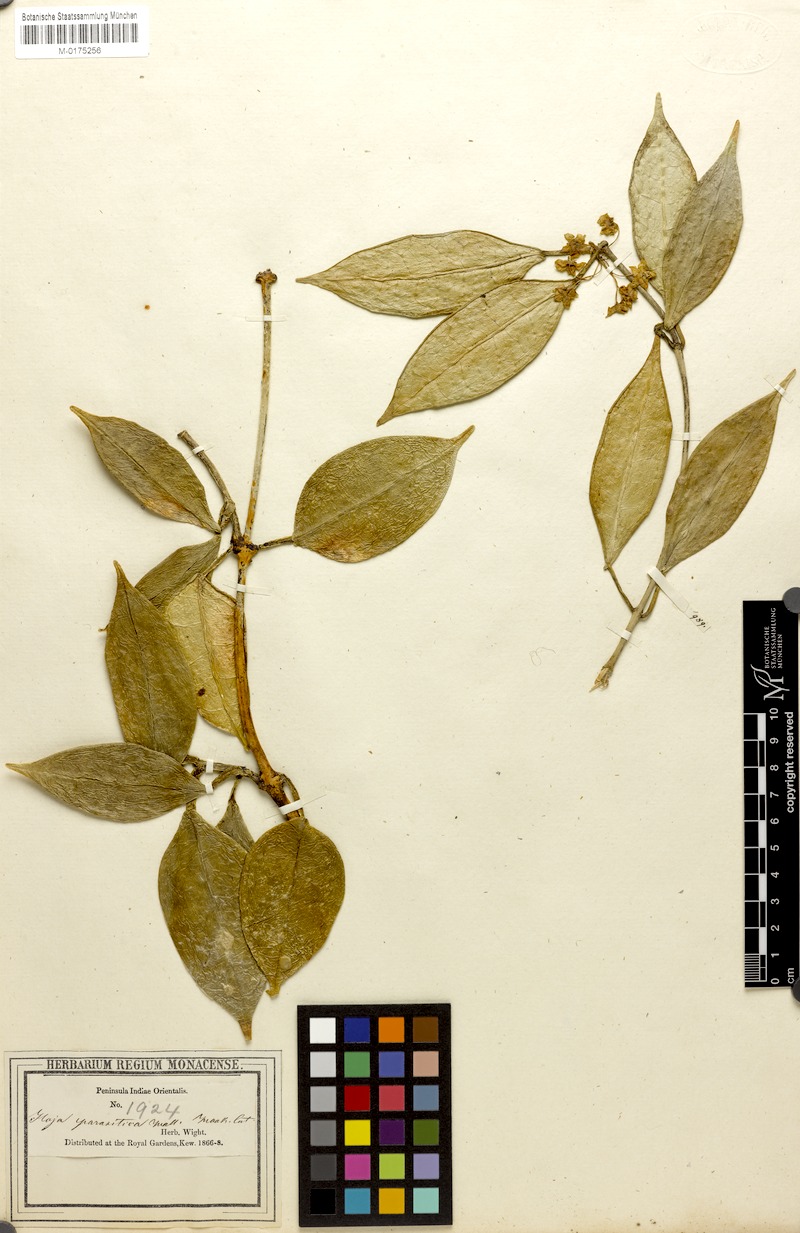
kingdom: Plantae
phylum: Tracheophyta
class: Magnoliopsida
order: Gentianales
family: Apocynaceae
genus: Hoya
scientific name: Hoya verticillata
